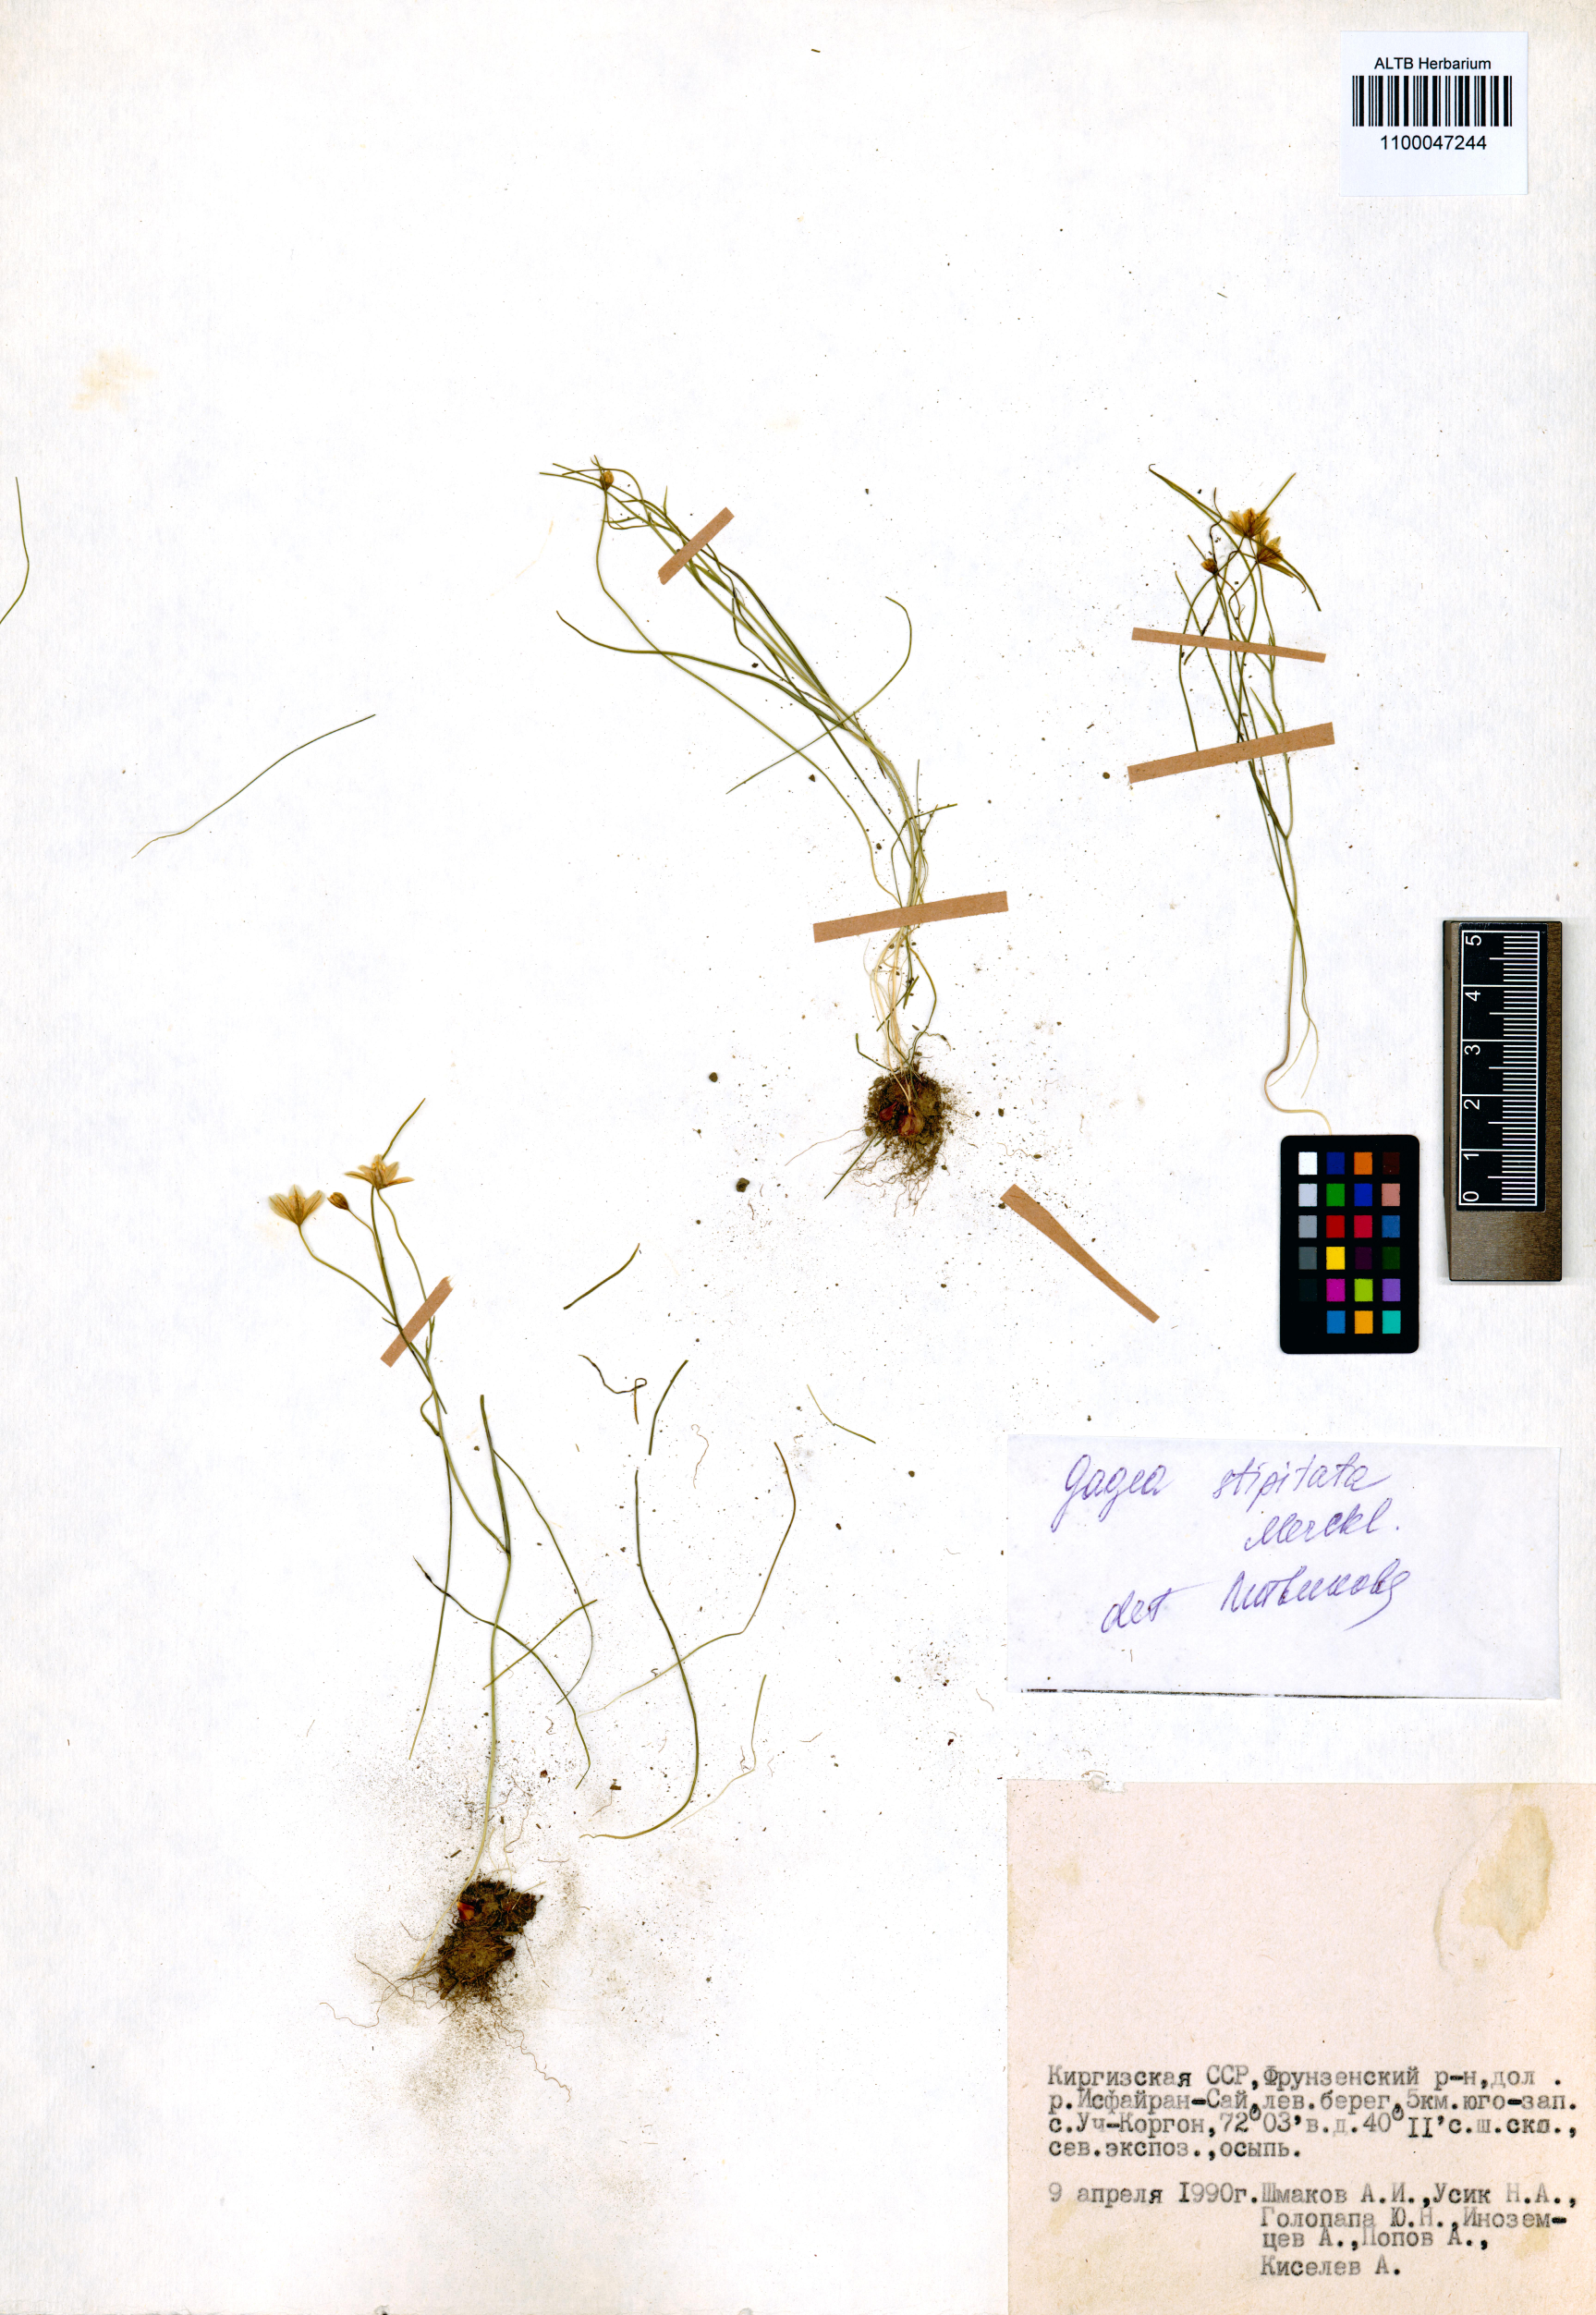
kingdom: Plantae
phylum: Tracheophyta
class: Liliopsida
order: Liliales
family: Liliaceae
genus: Gagea
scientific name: Gagea kunawurensis
